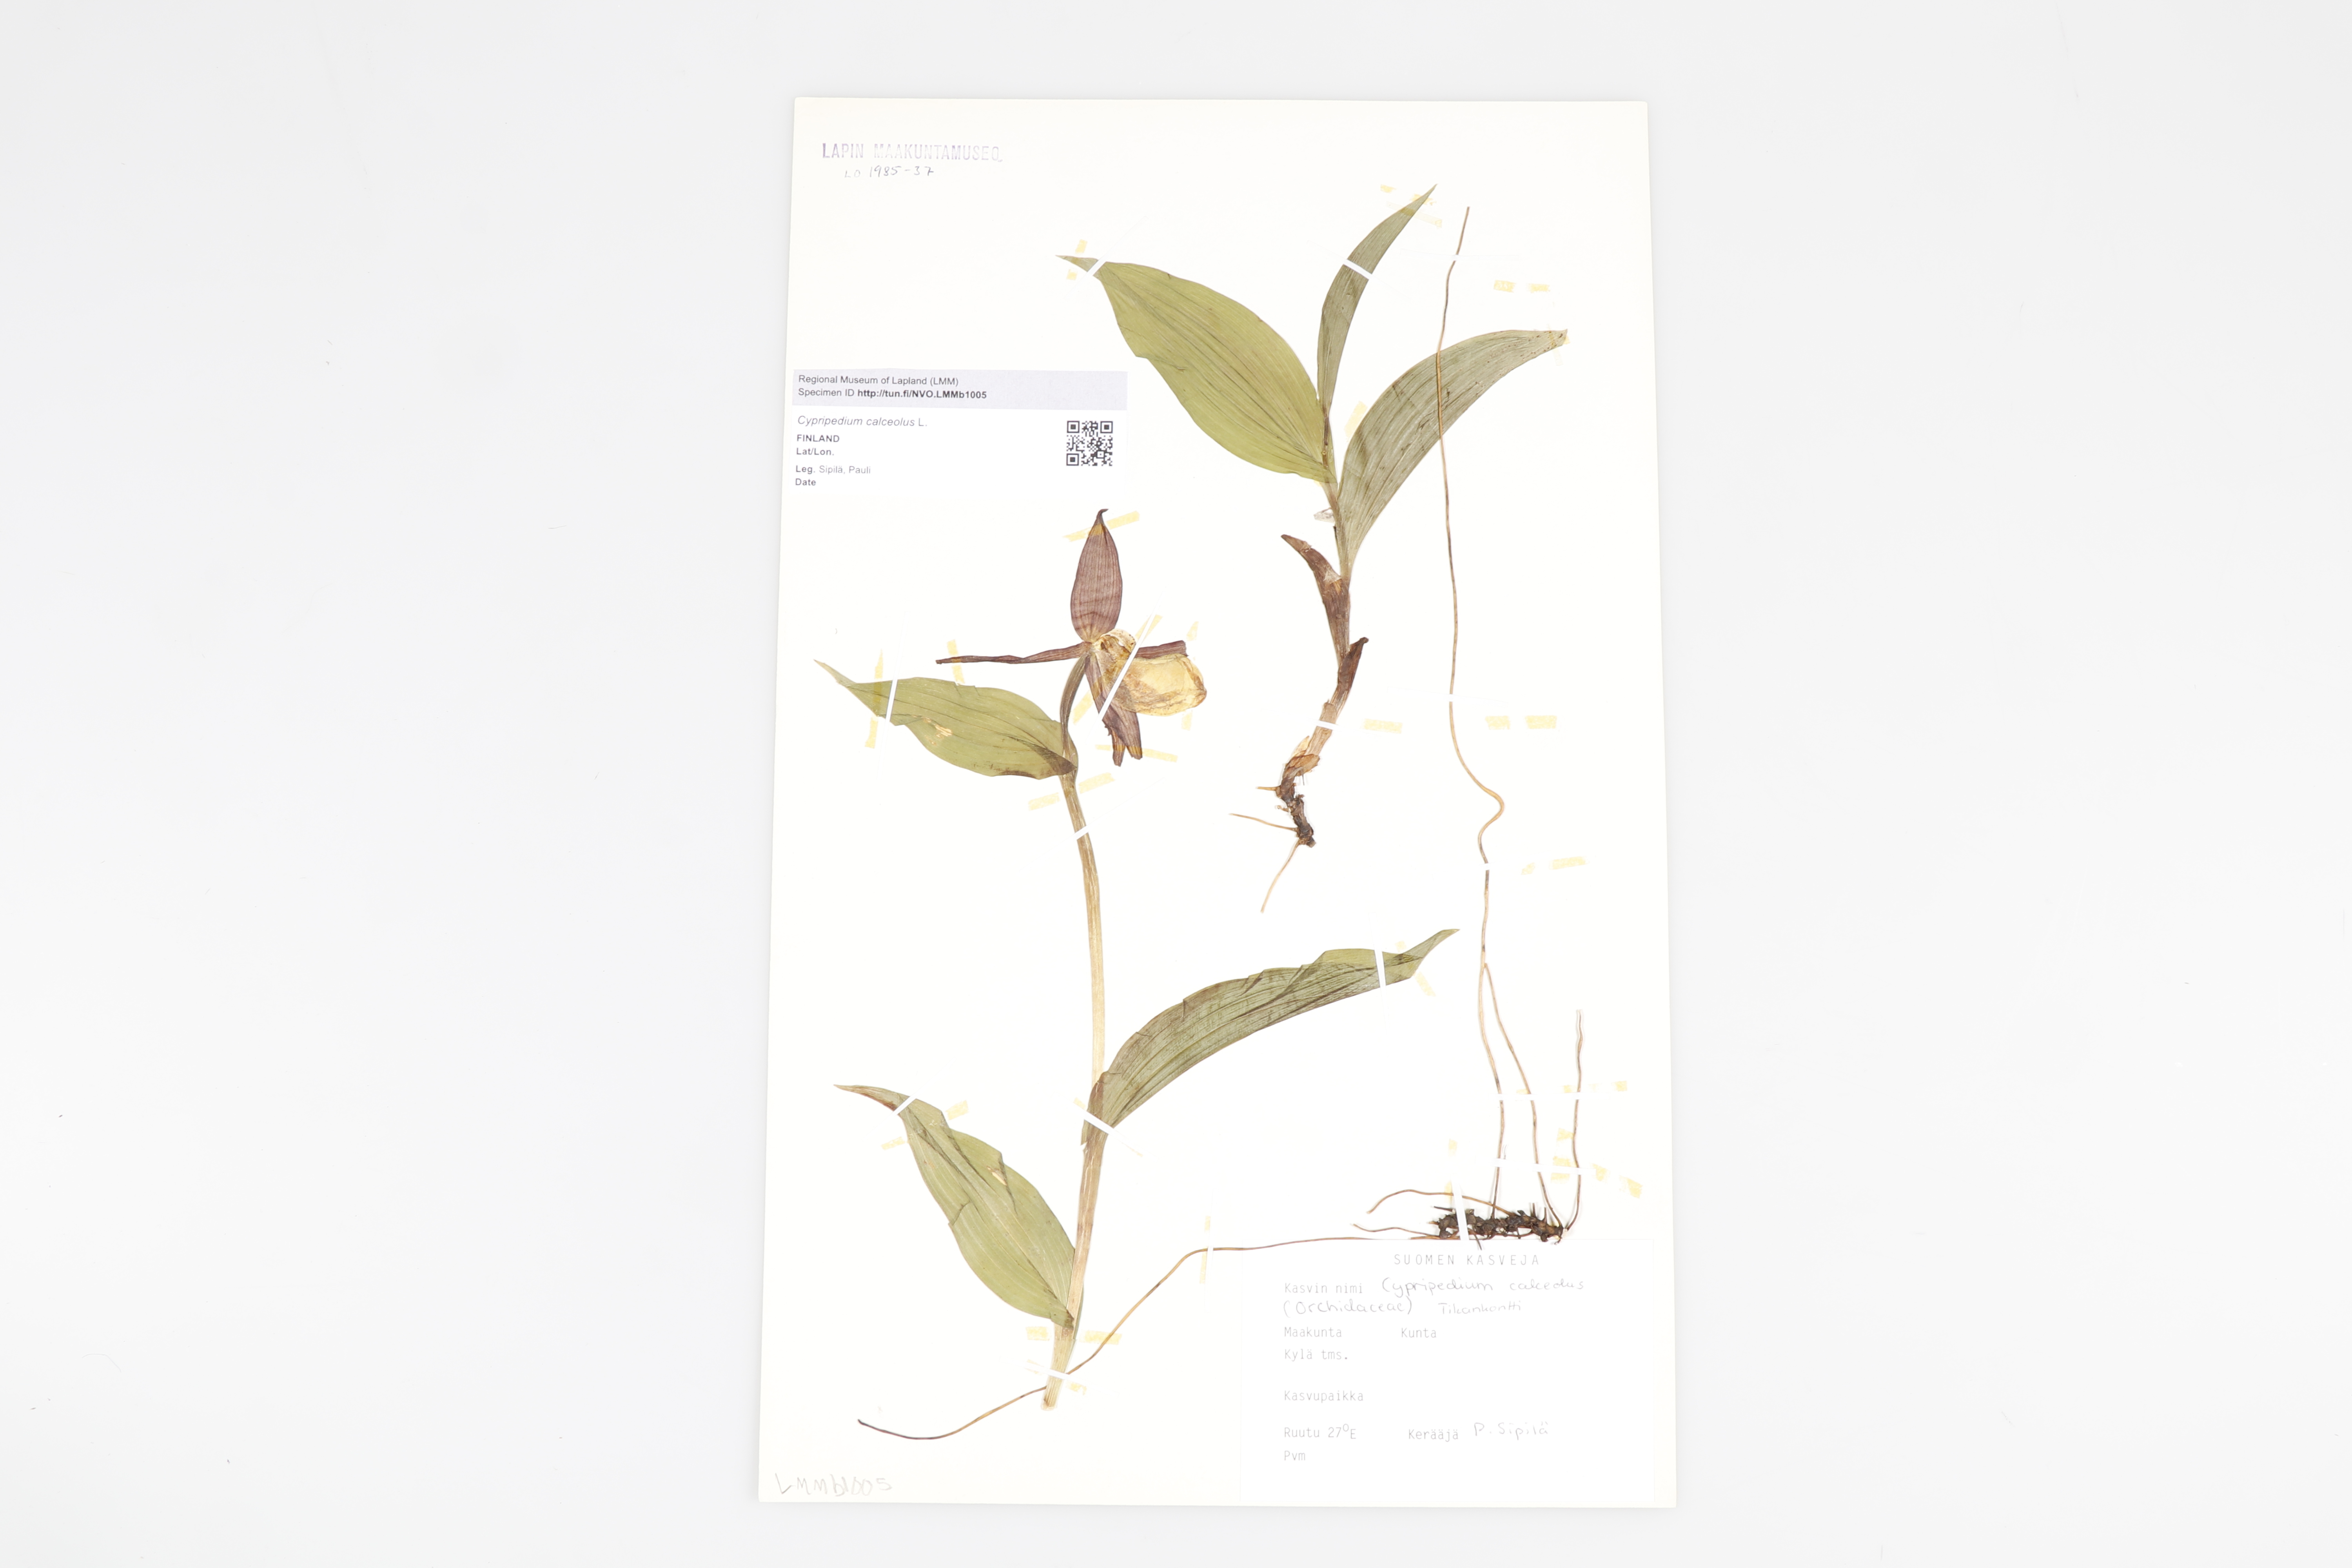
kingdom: Plantae
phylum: Tracheophyta
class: Liliopsida
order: Asparagales
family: Orchidaceae
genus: Cypripedium
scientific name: Cypripedium calceolus
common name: Lady's-slipper
